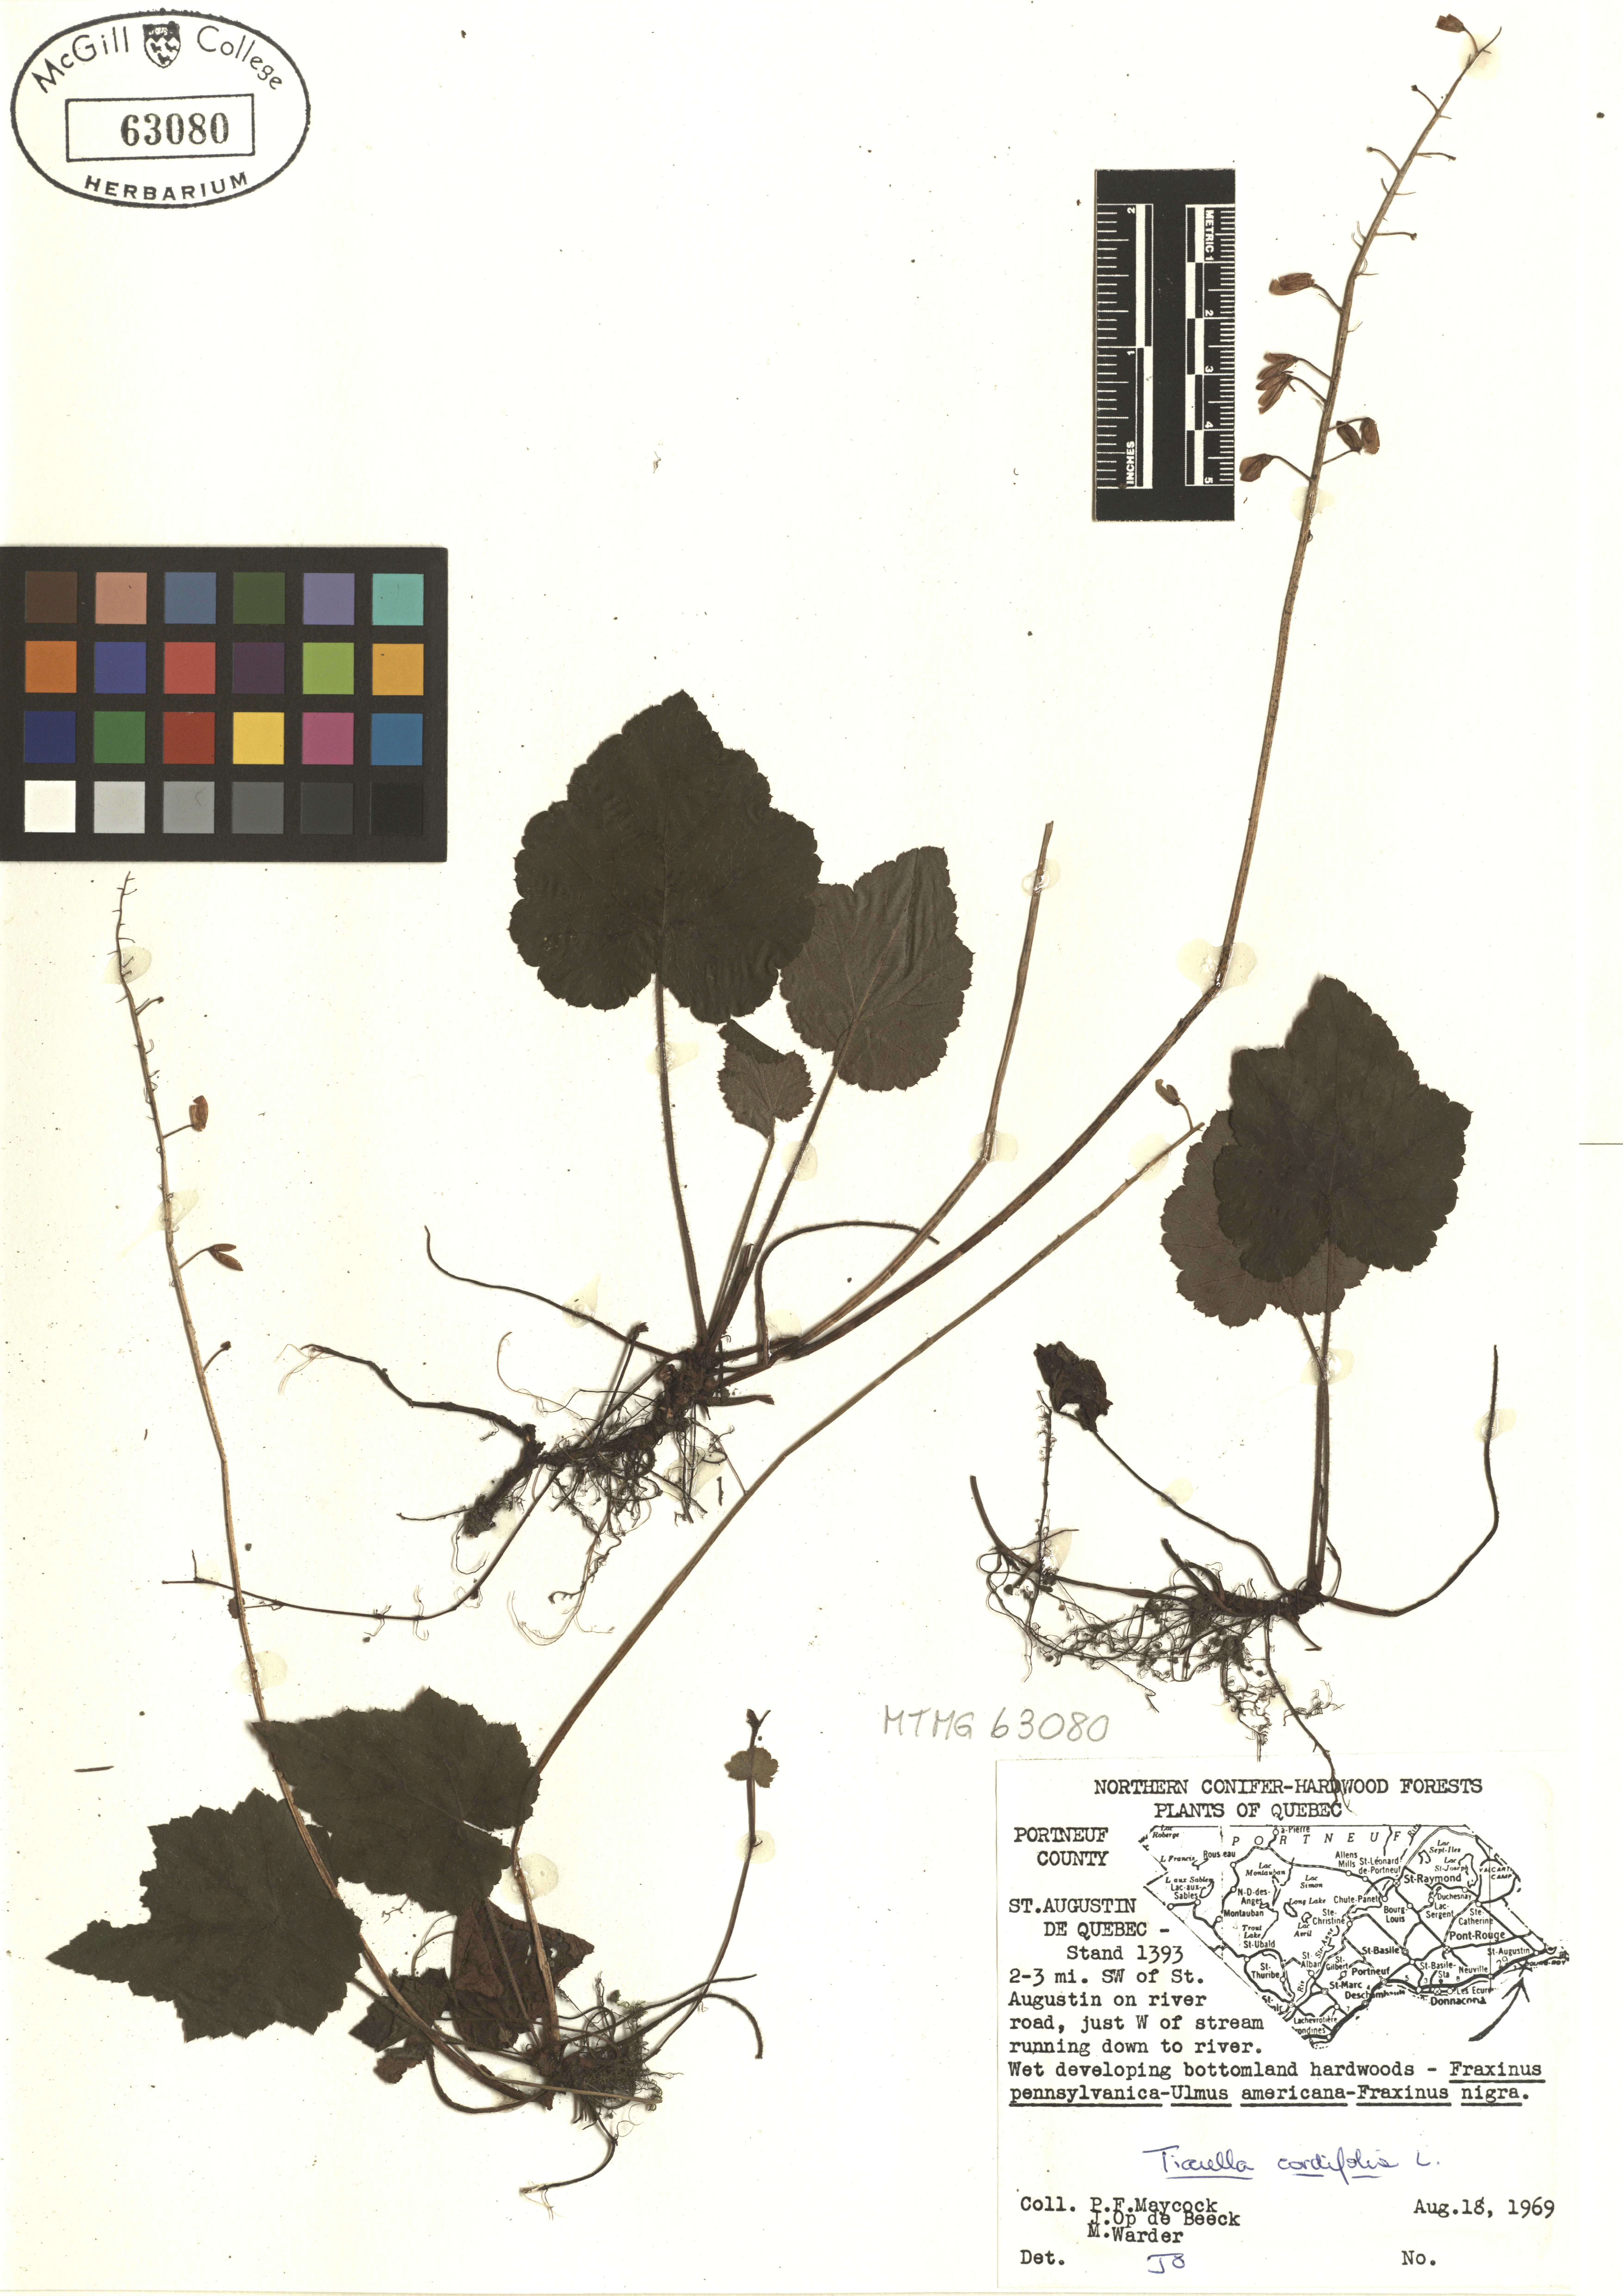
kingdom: Plantae
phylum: Tracheophyta
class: Magnoliopsida
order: Saxifragales
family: Saxifragaceae
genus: Tiarella
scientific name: Tiarella cordifolia
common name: Foamflower
